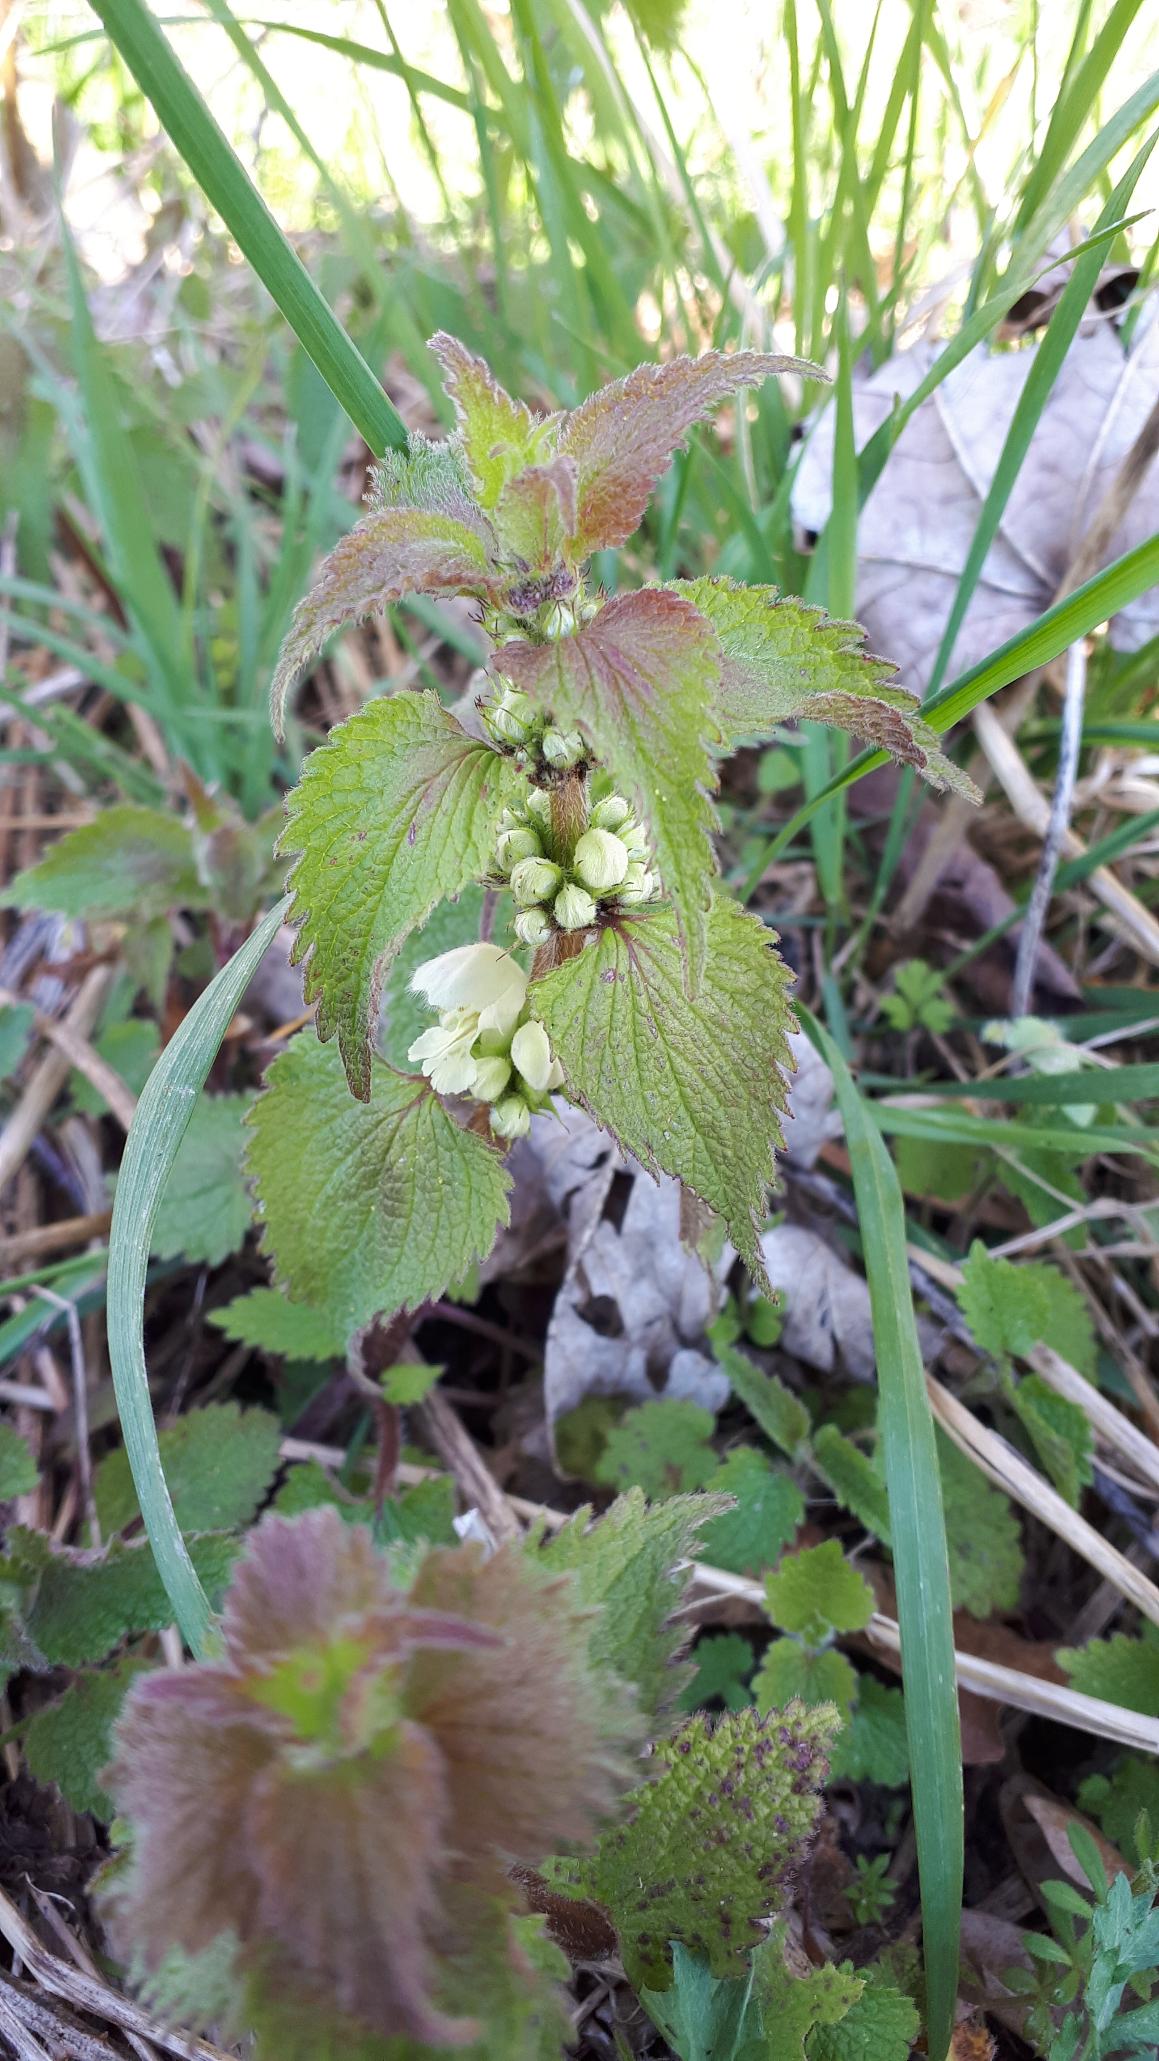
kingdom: Plantae
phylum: Tracheophyta
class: Magnoliopsida
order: Lamiales
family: Lamiaceae
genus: Lamium
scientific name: Lamium album
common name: Døvnælde
